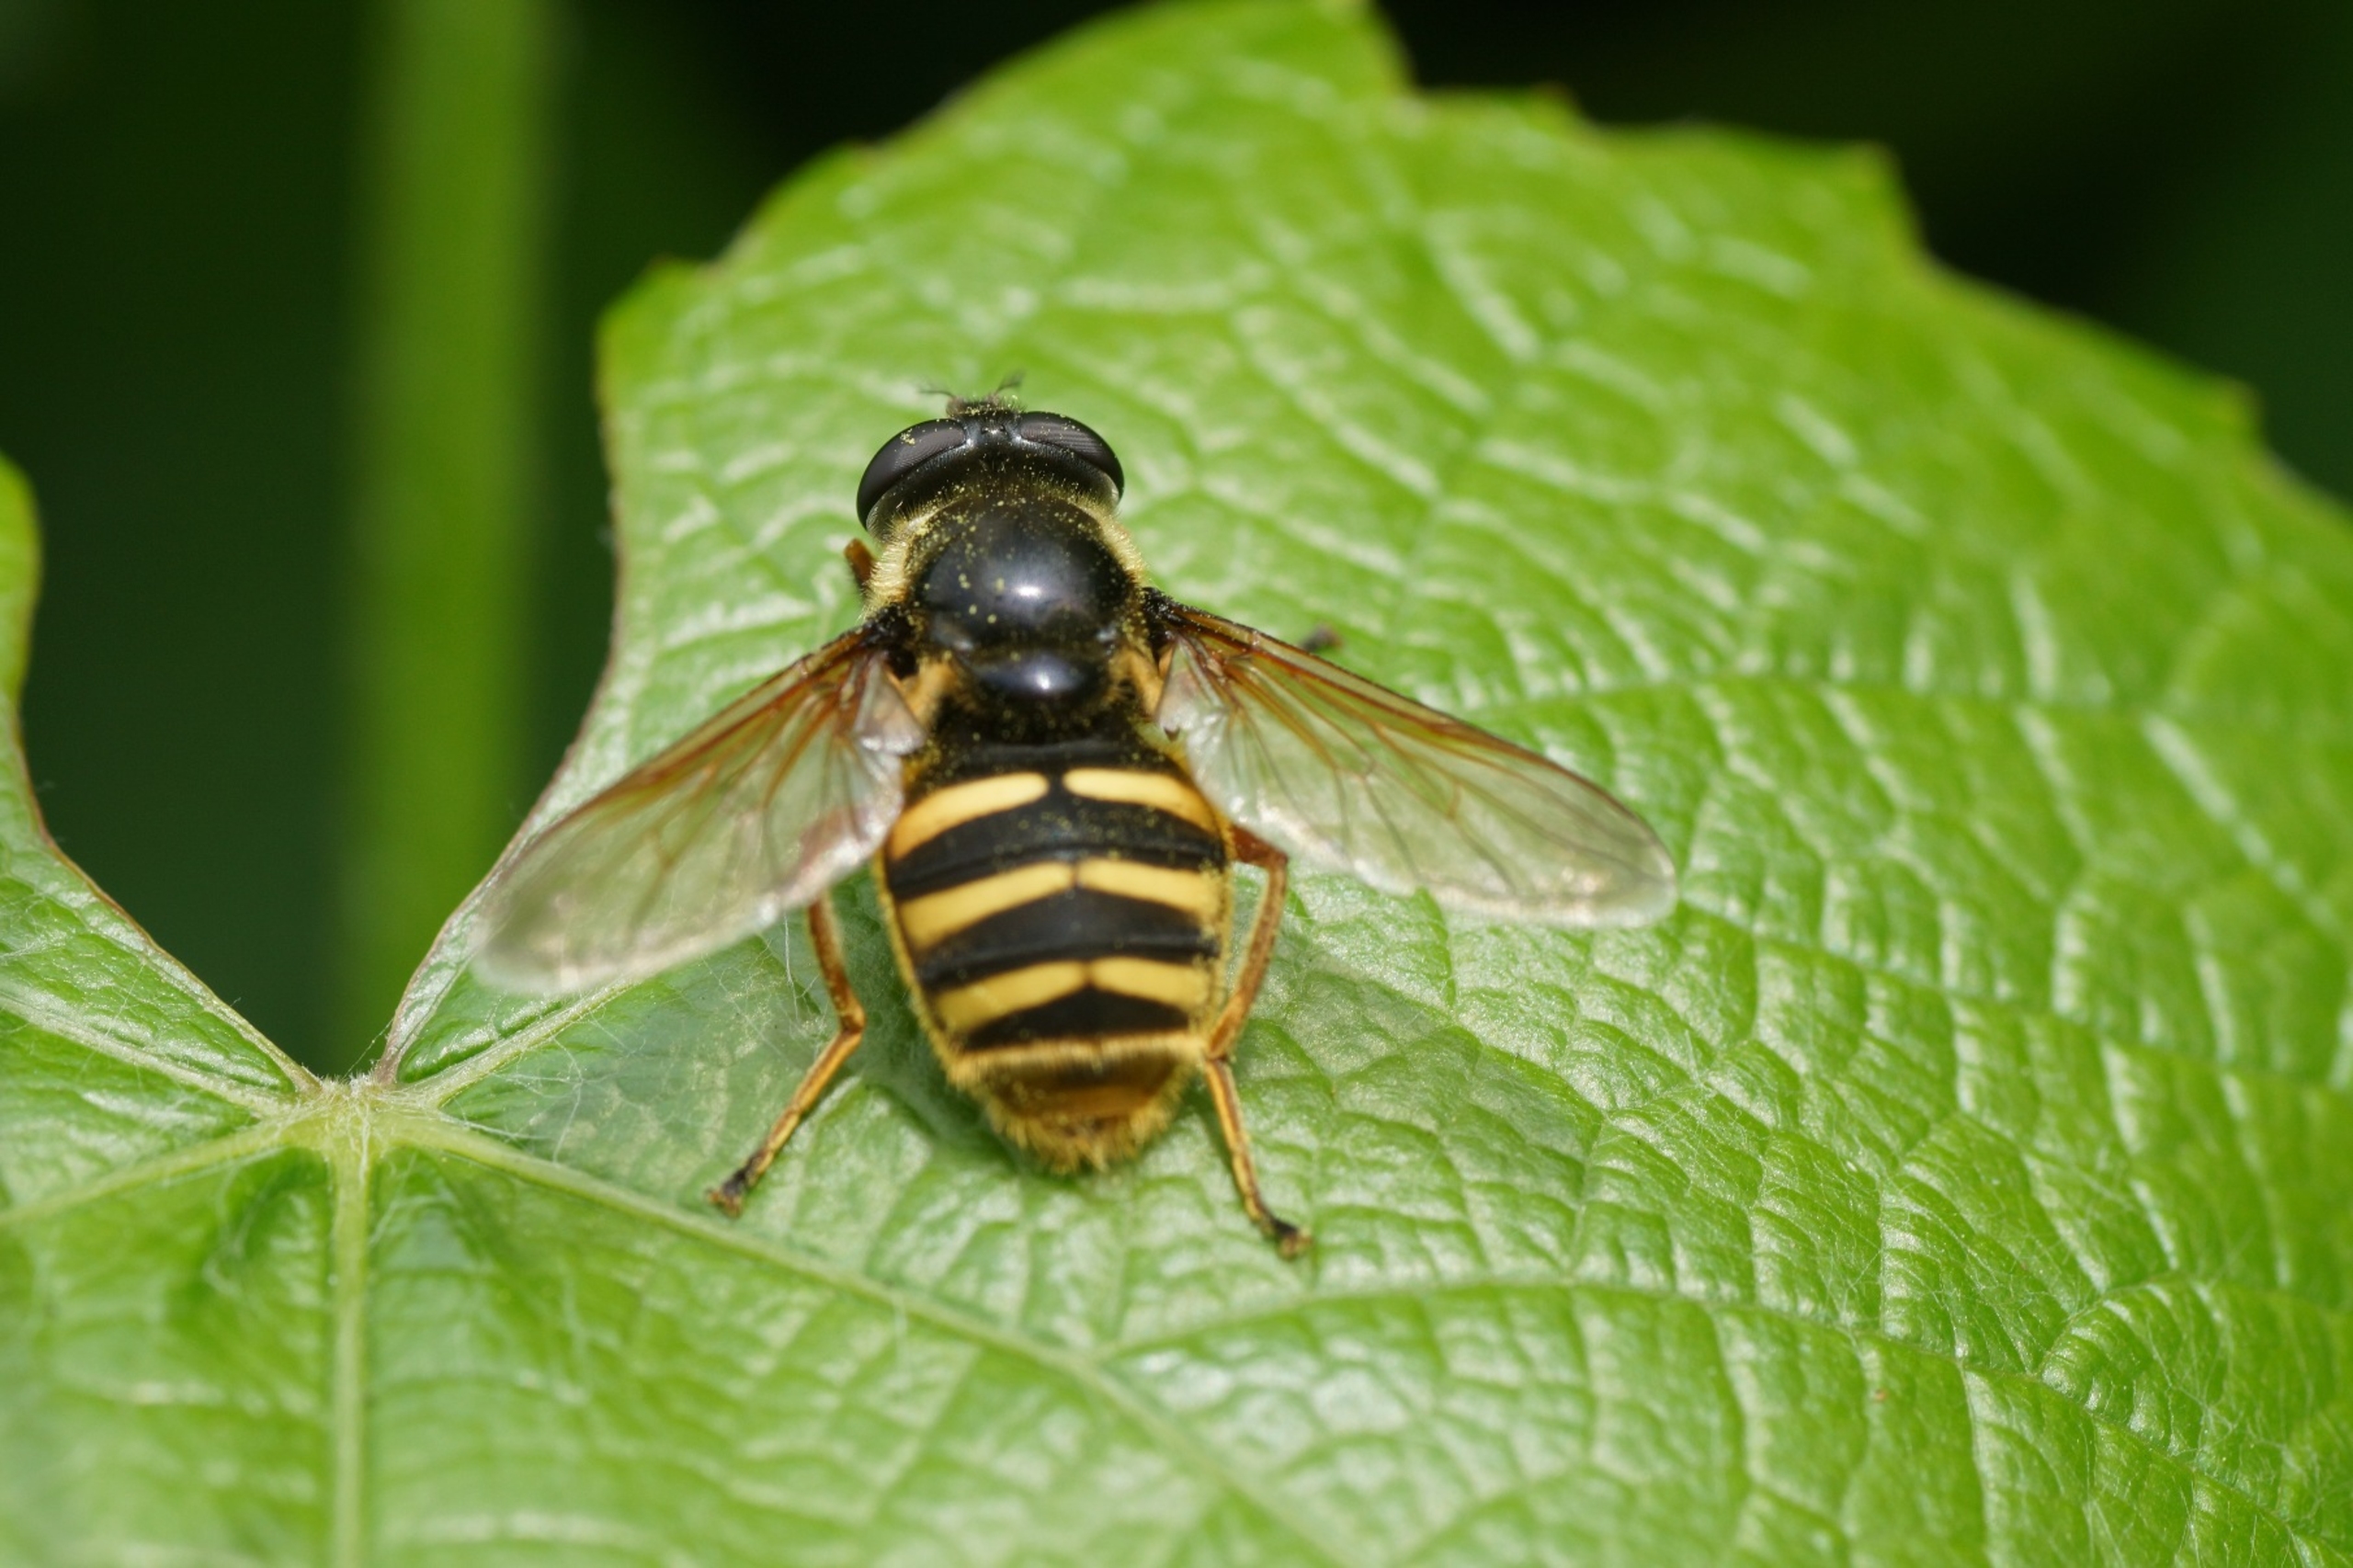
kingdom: Animalia
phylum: Arthropoda
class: Insecta
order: Diptera
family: Syrphidae
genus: Sericomyia
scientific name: Sericomyia silentis
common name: Tørve-silkesvirreflue
